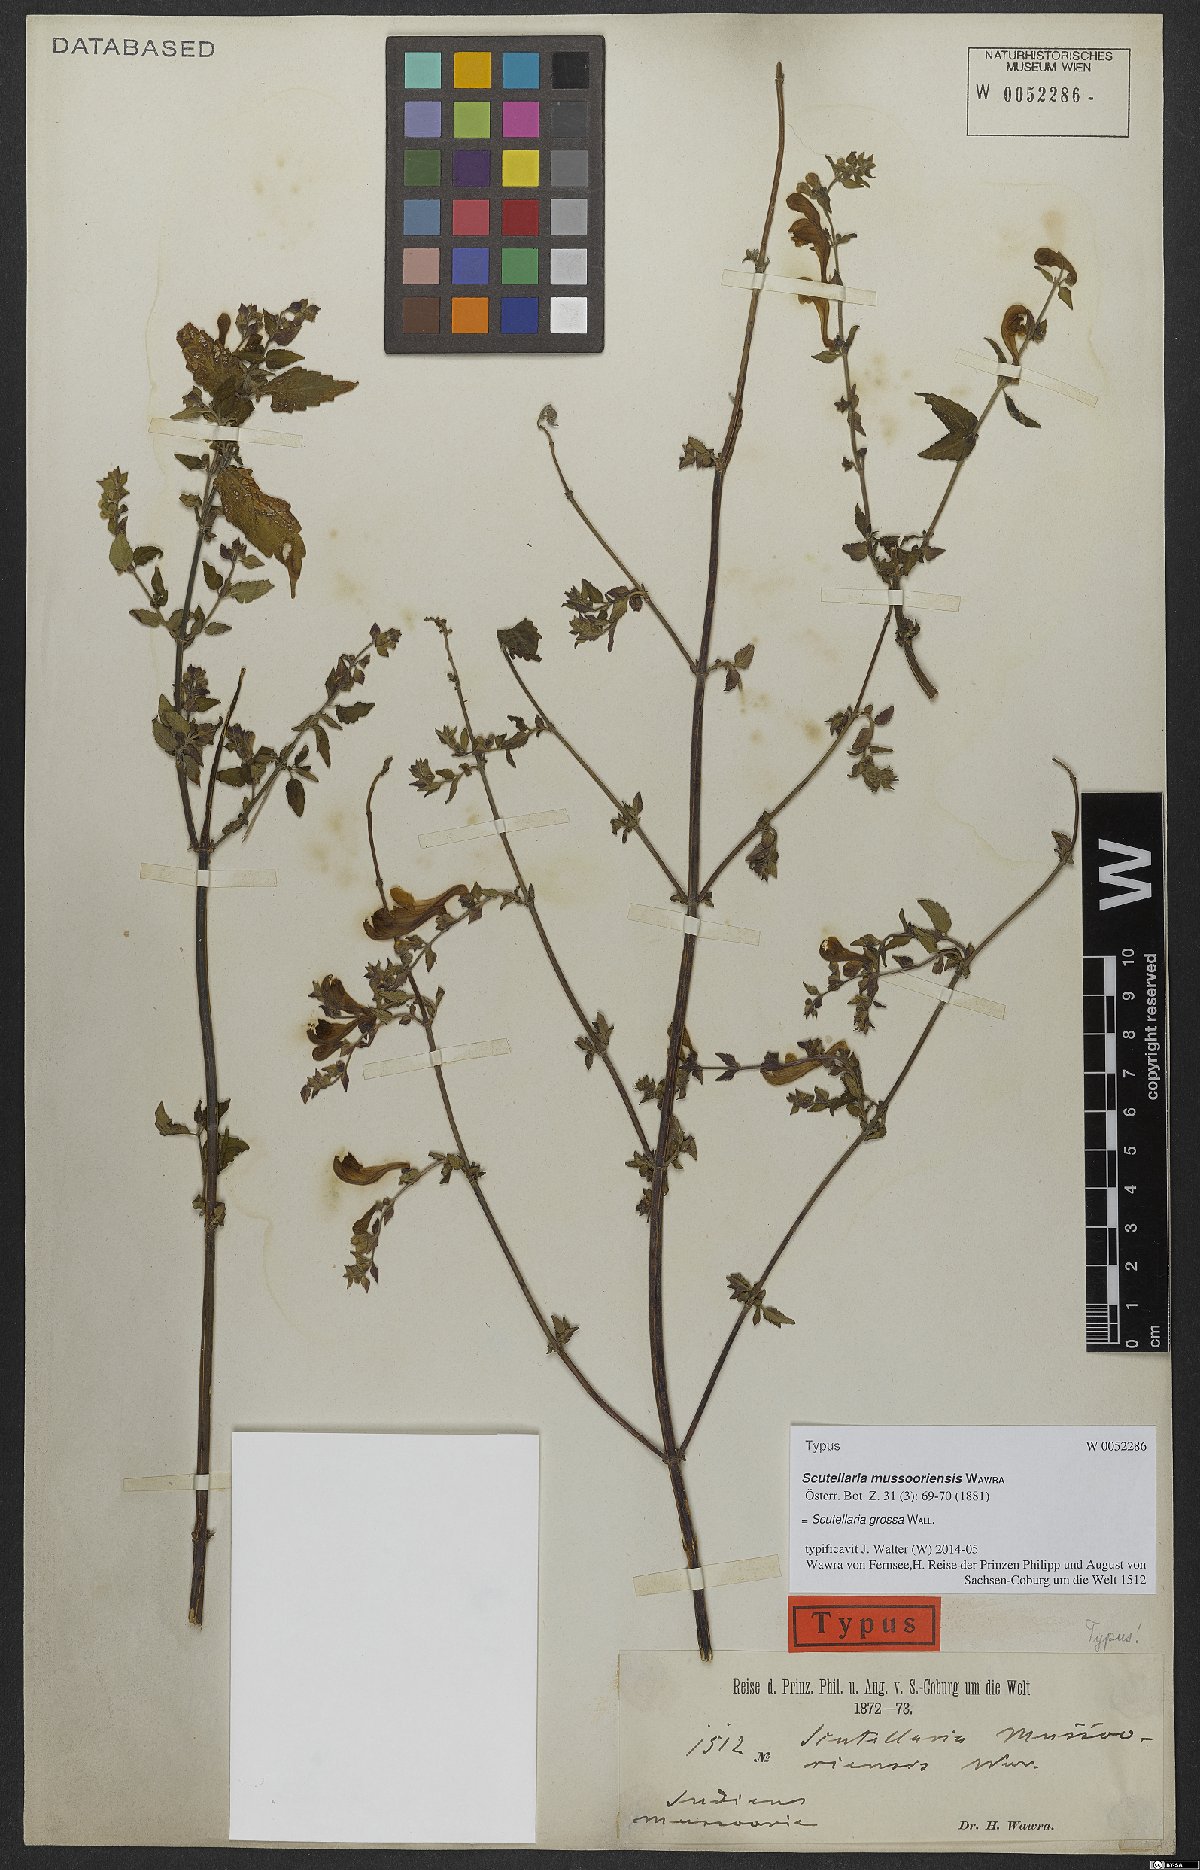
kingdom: Plantae
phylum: Tracheophyta
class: Magnoliopsida
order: Lamiales
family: Lamiaceae
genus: Scutellaria
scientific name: Scutellaria grossa
